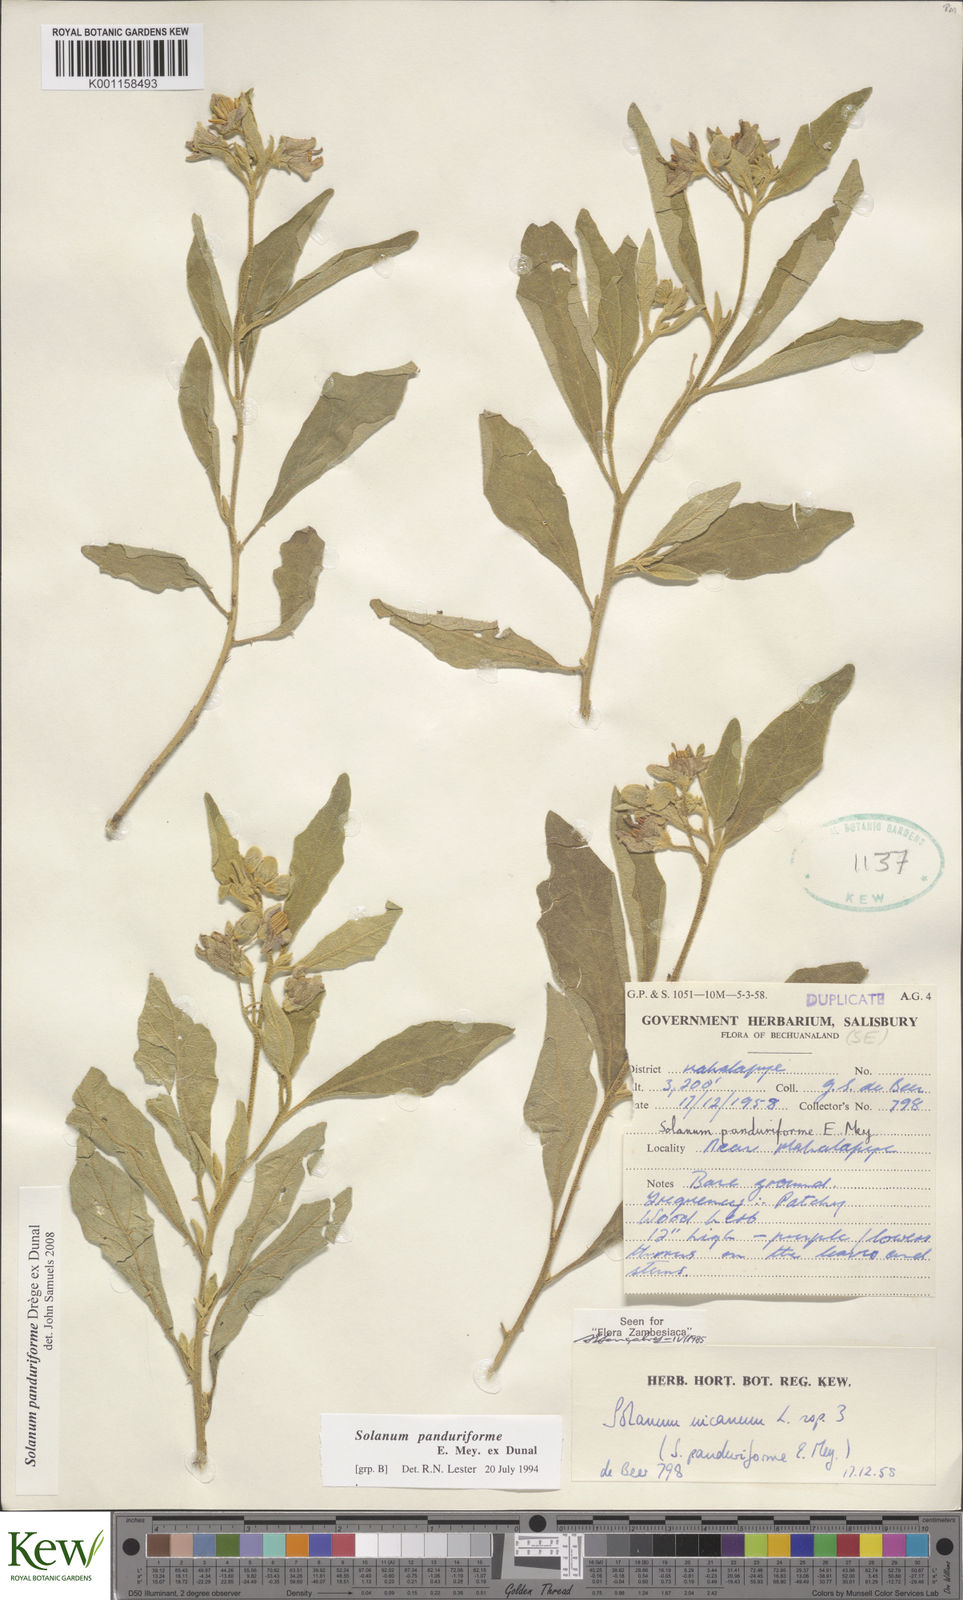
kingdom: Plantae
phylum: Tracheophyta
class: Magnoliopsida
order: Solanales
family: Solanaceae
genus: Solanum
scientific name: Solanum campylacanthum
